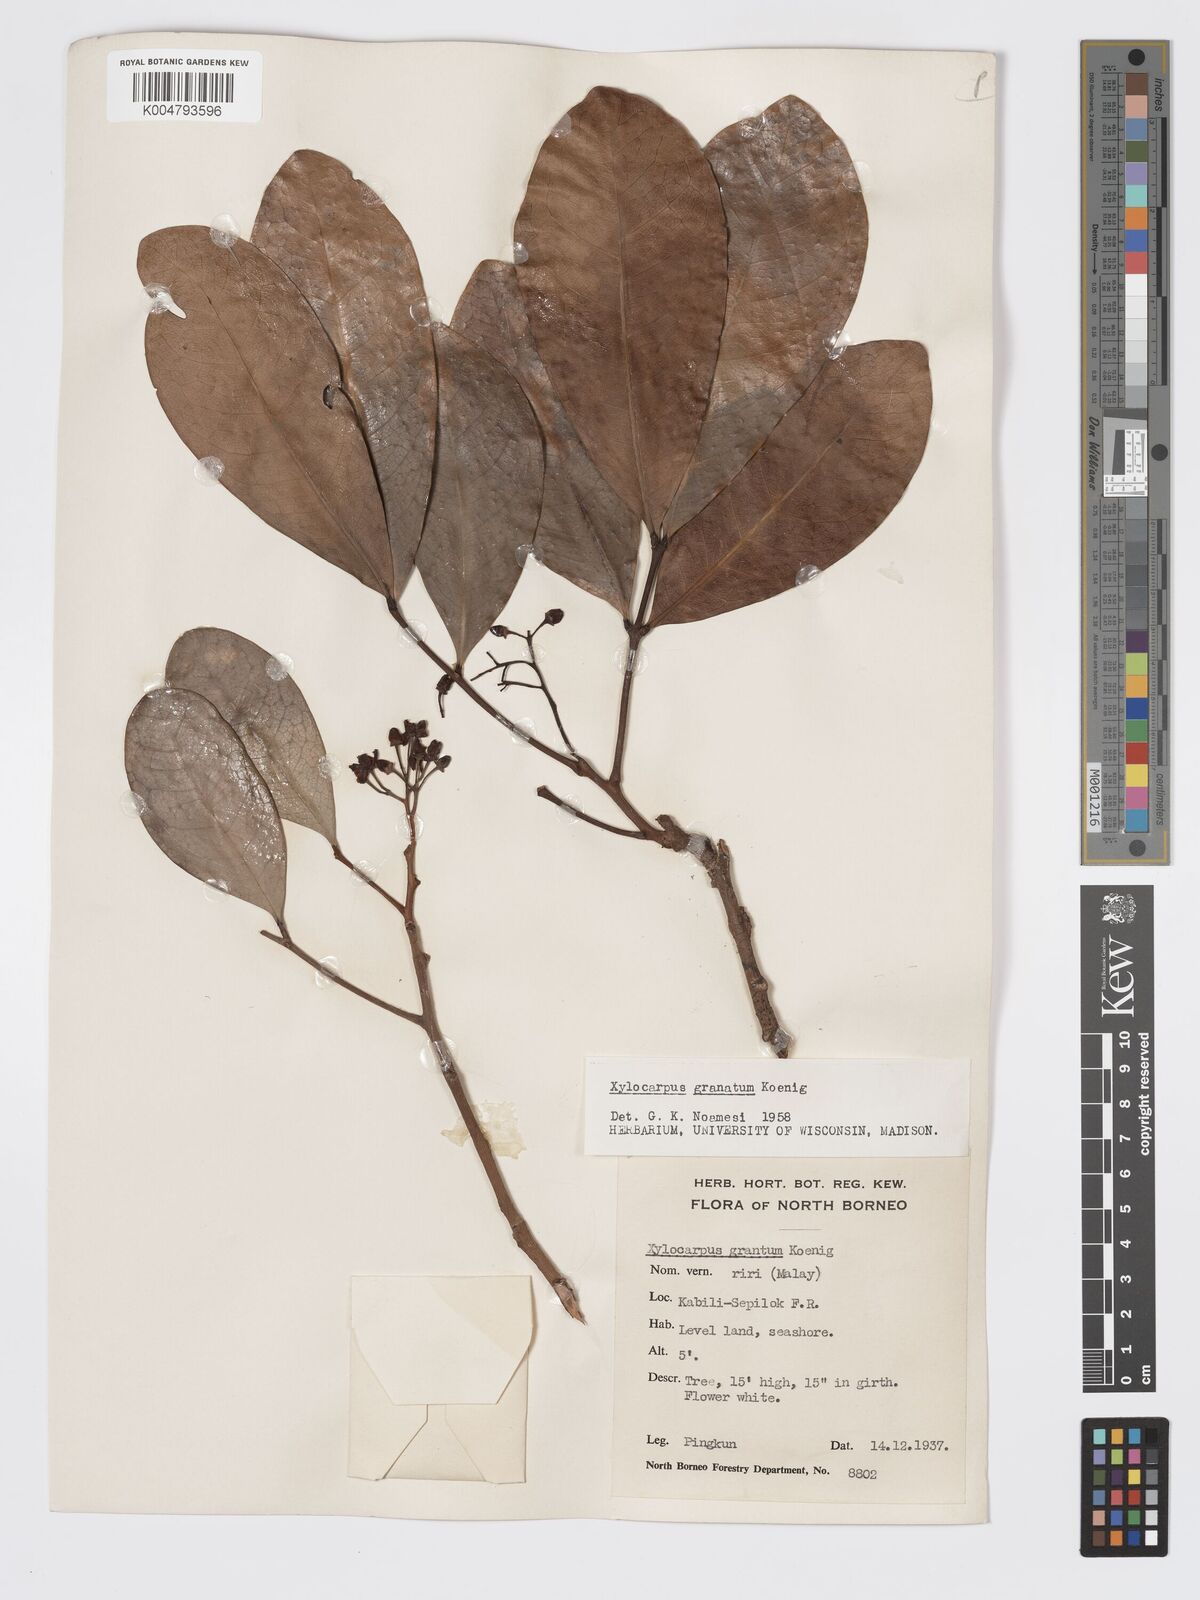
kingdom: Plantae
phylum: Tracheophyta
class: Magnoliopsida
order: Sapindales
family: Meliaceae
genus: Xylocarpus
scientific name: Xylocarpus granatum
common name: Apple mangrove
